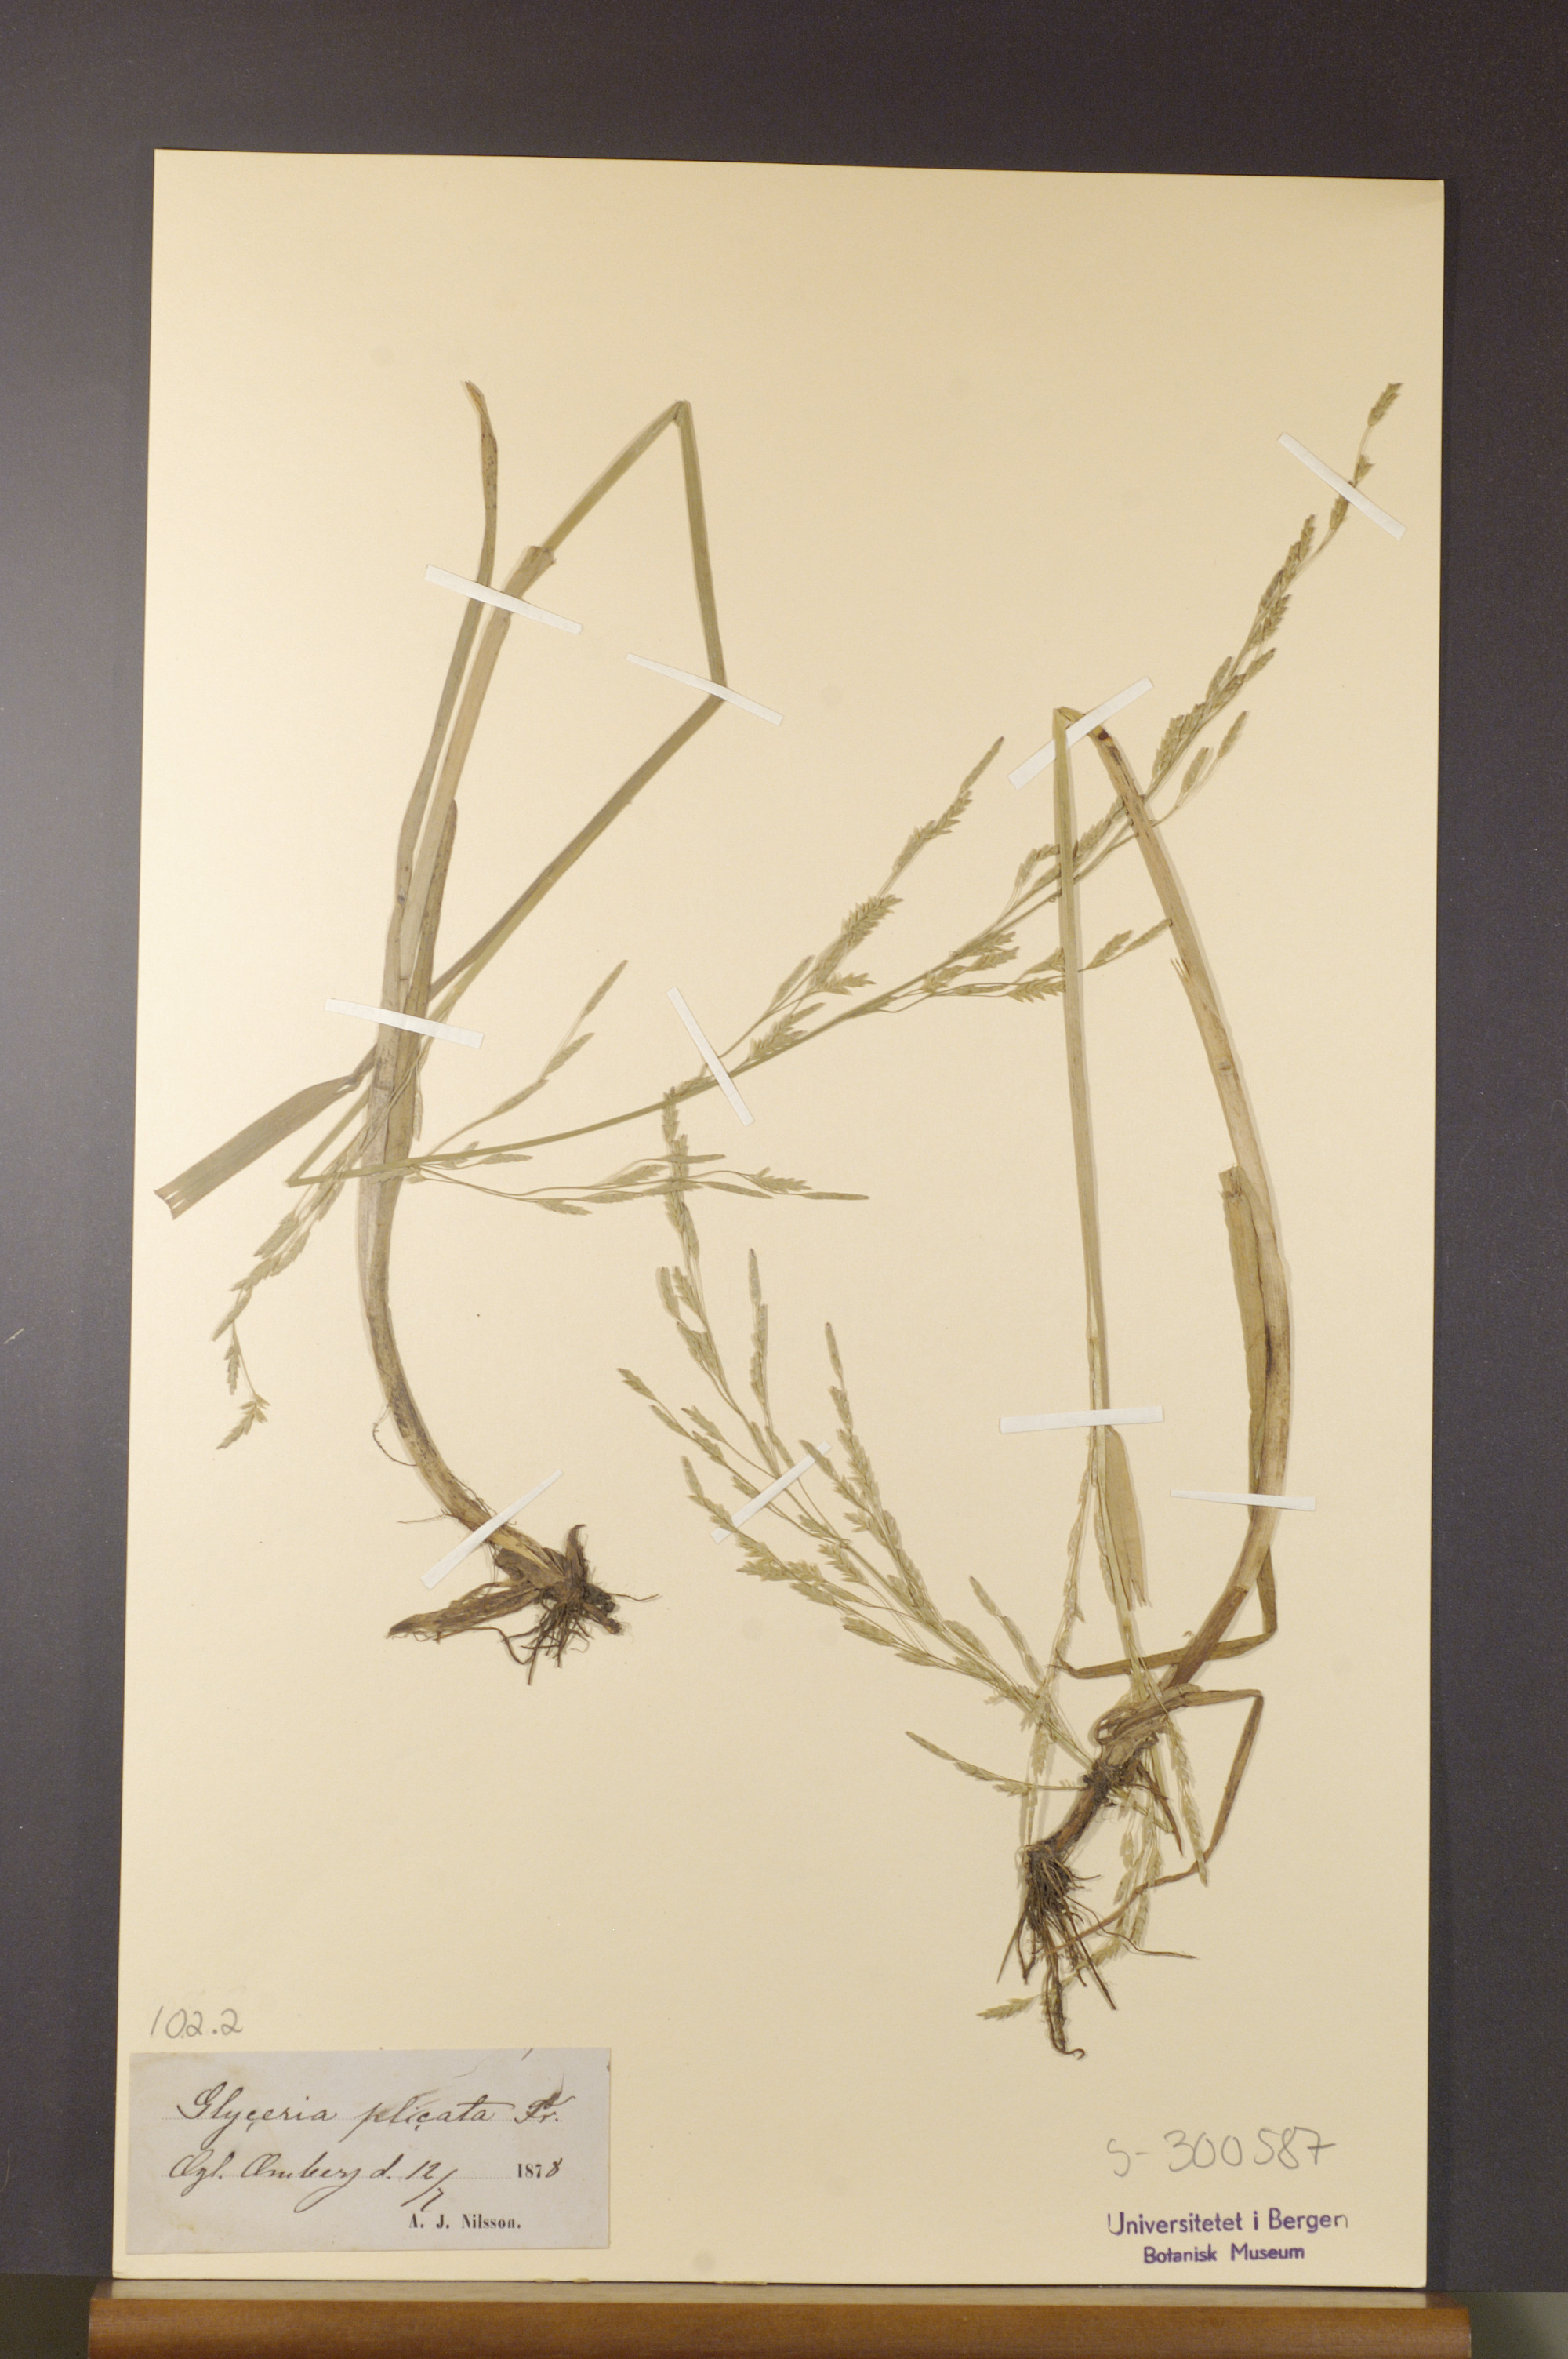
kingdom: Plantae
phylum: Tracheophyta
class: Liliopsida
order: Poales
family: Poaceae
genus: Glyceria
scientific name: Glyceria notata
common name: Plicate sweet-grass
